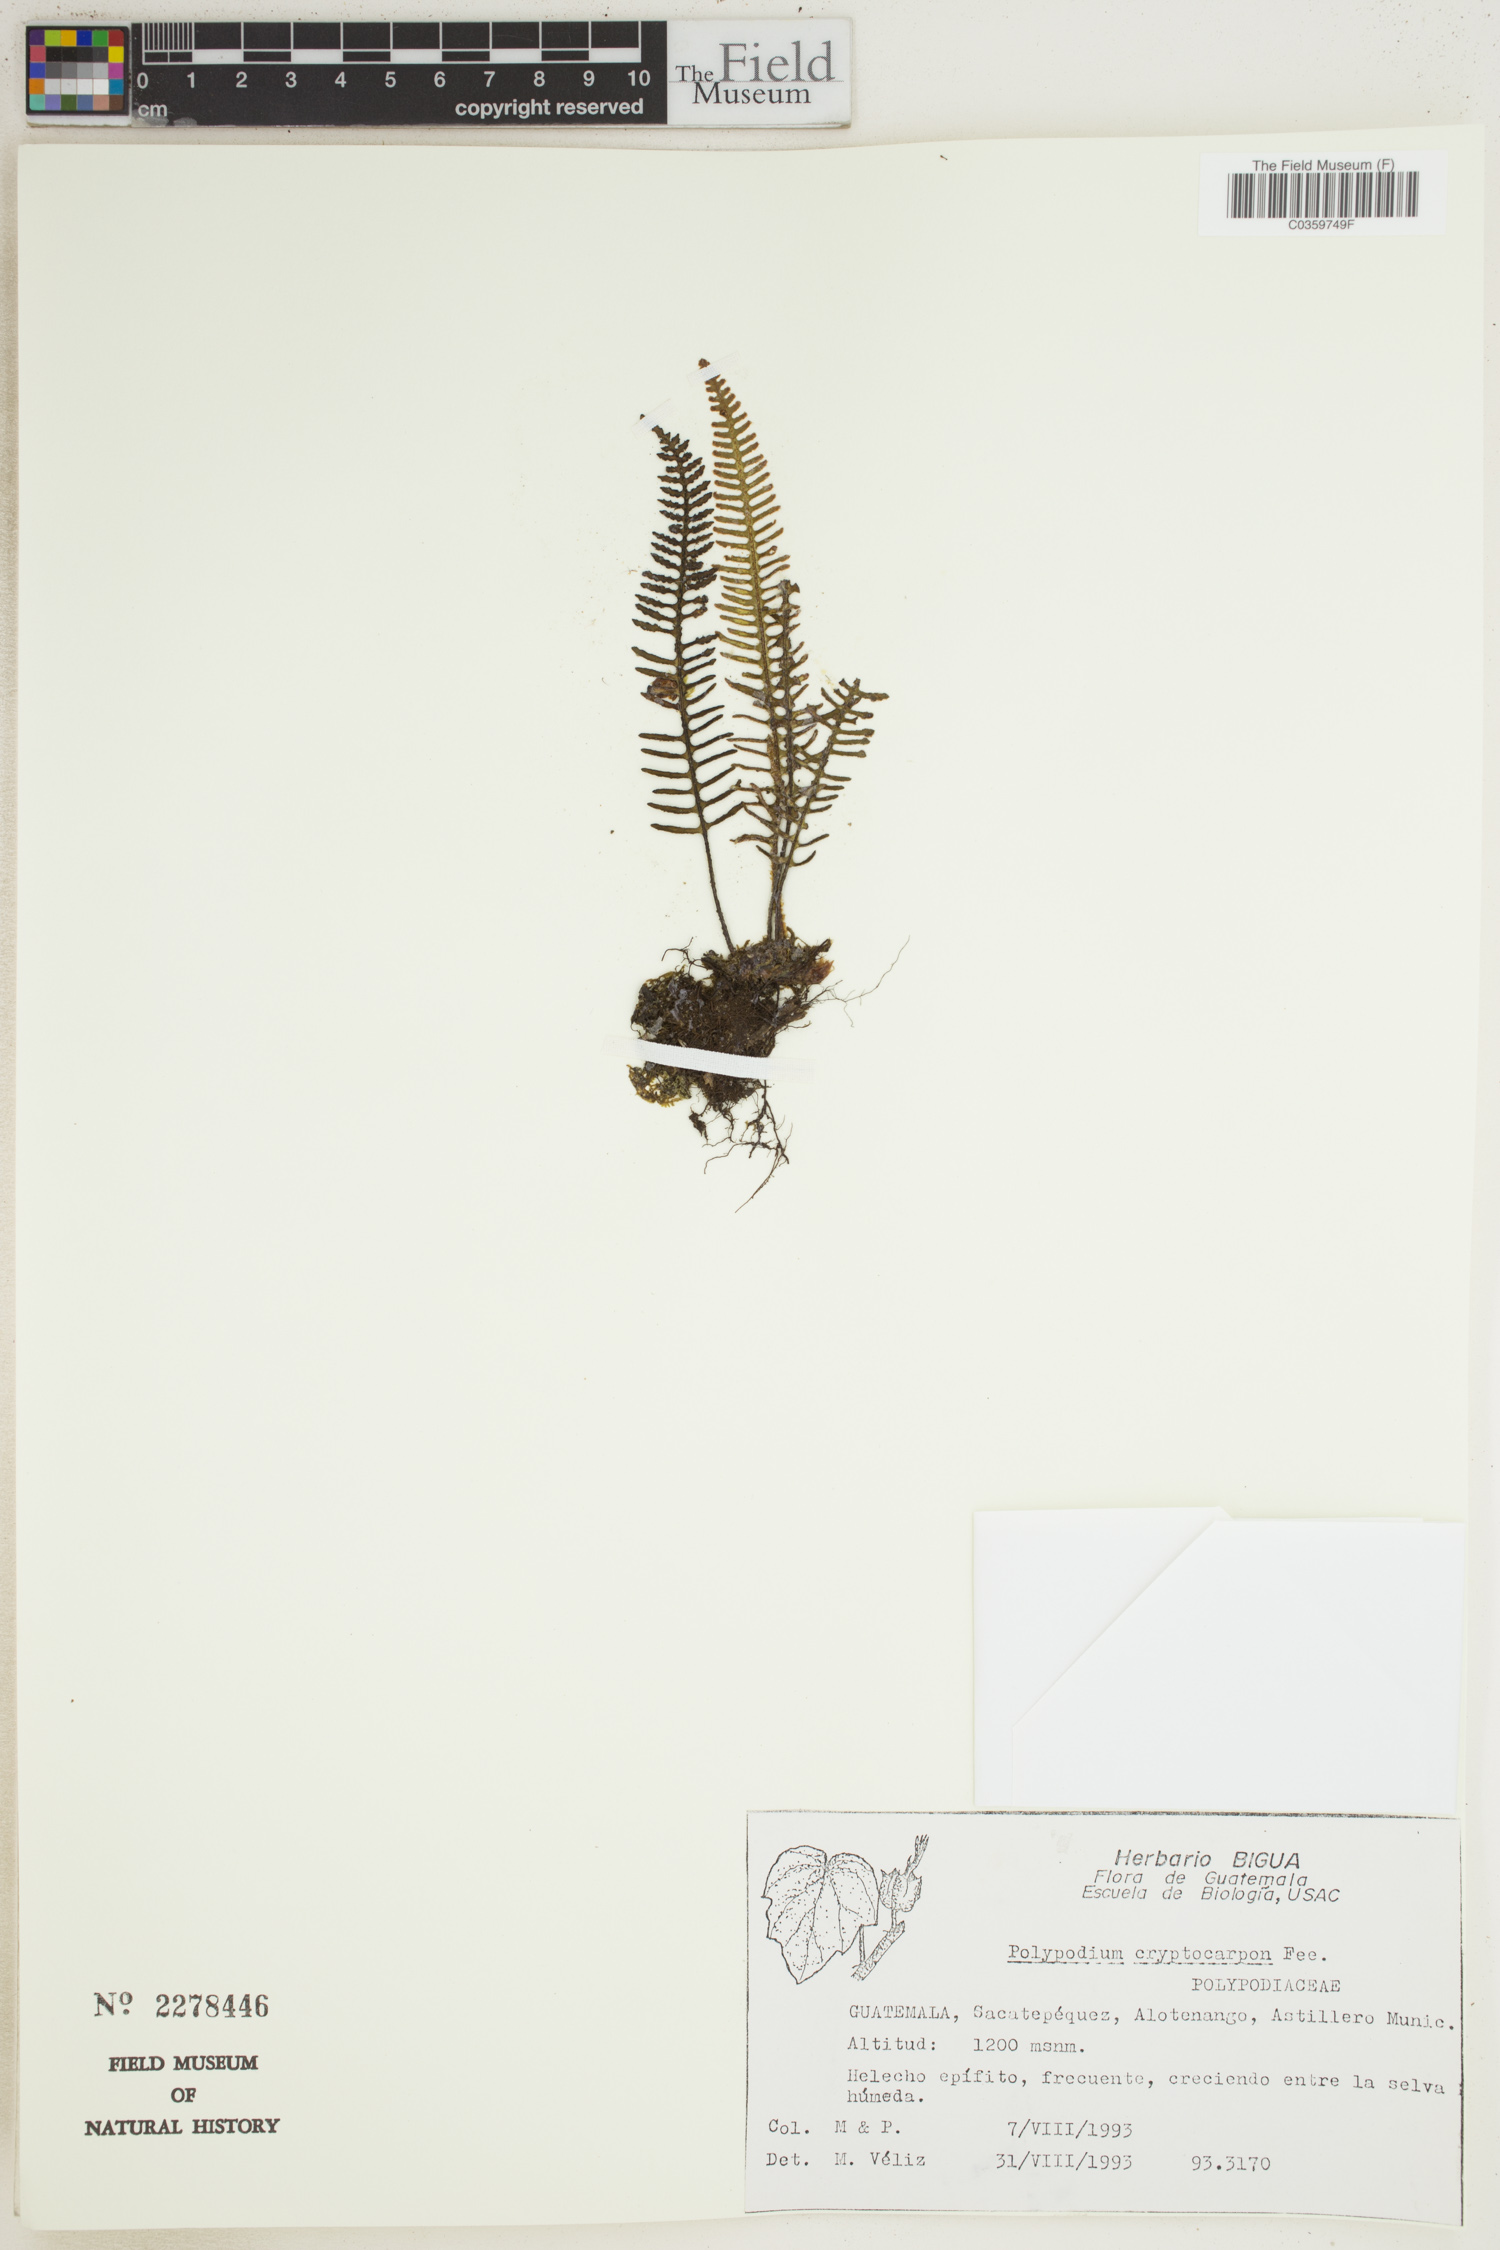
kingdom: Plantae
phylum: Tracheophyta
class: Polypodiopsida
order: Polypodiales
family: Polypodiaceae
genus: Pleopeltis
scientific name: Pleopeltis cryptocarpa
